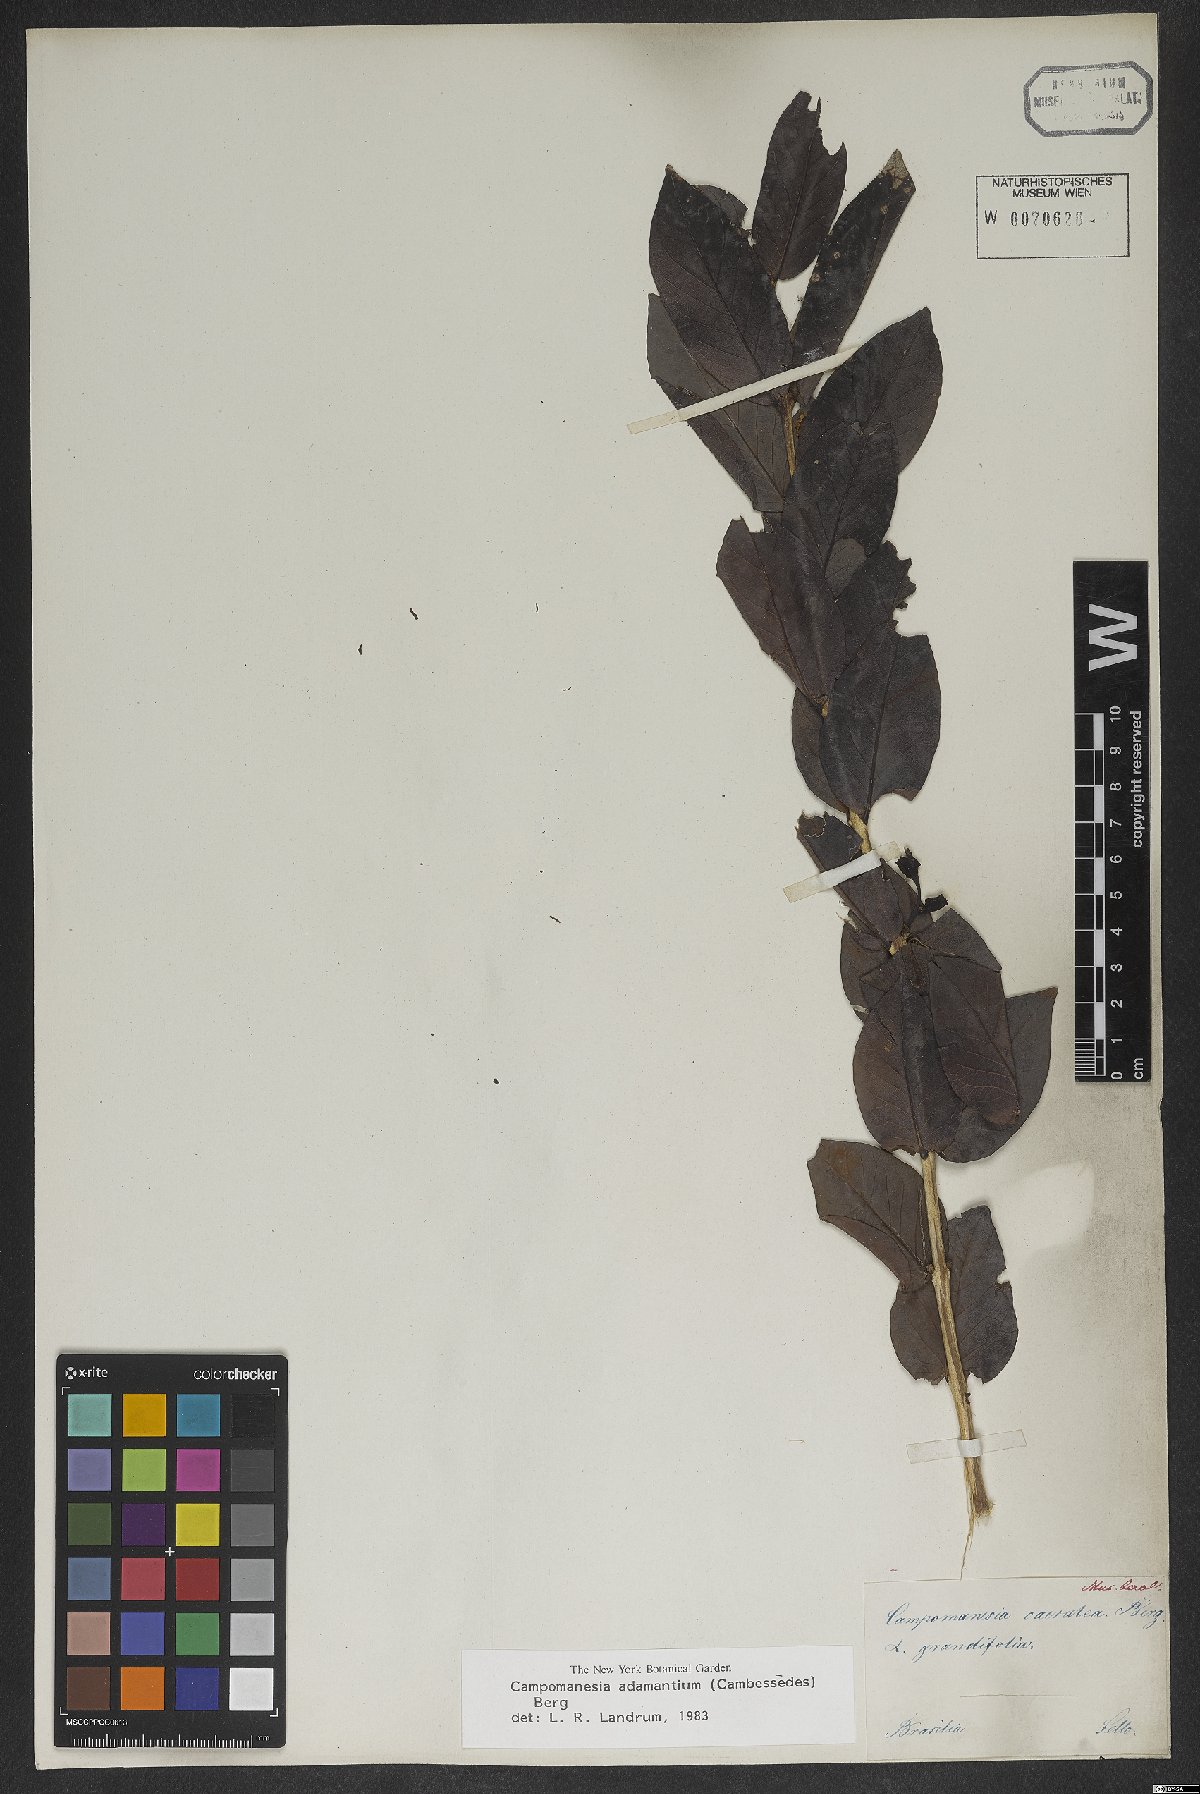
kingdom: Plantae
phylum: Tracheophyta
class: Magnoliopsida
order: Myrtales
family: Myrtaceae
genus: Campomanesia
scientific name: Campomanesia adamantium
